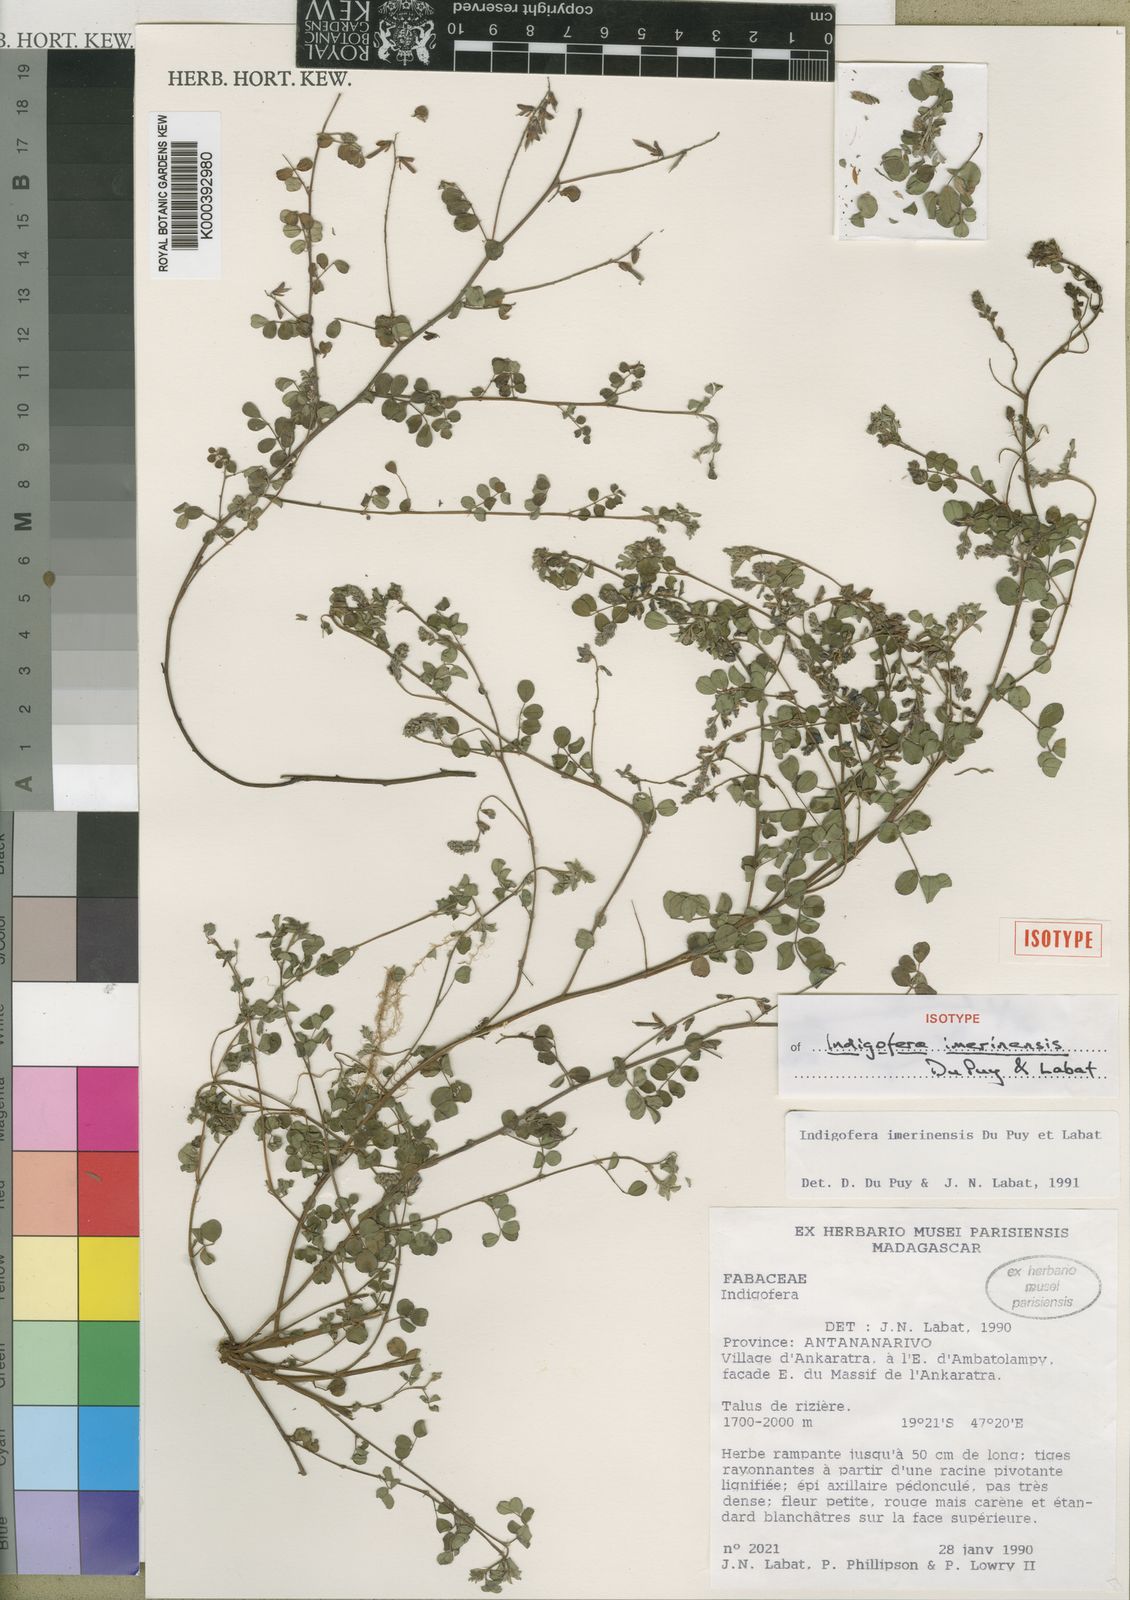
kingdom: Plantae
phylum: Tracheophyta
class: Magnoliopsida
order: Fabales
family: Fabaceae
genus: Indigofera
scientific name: Indigofera imerinensis
